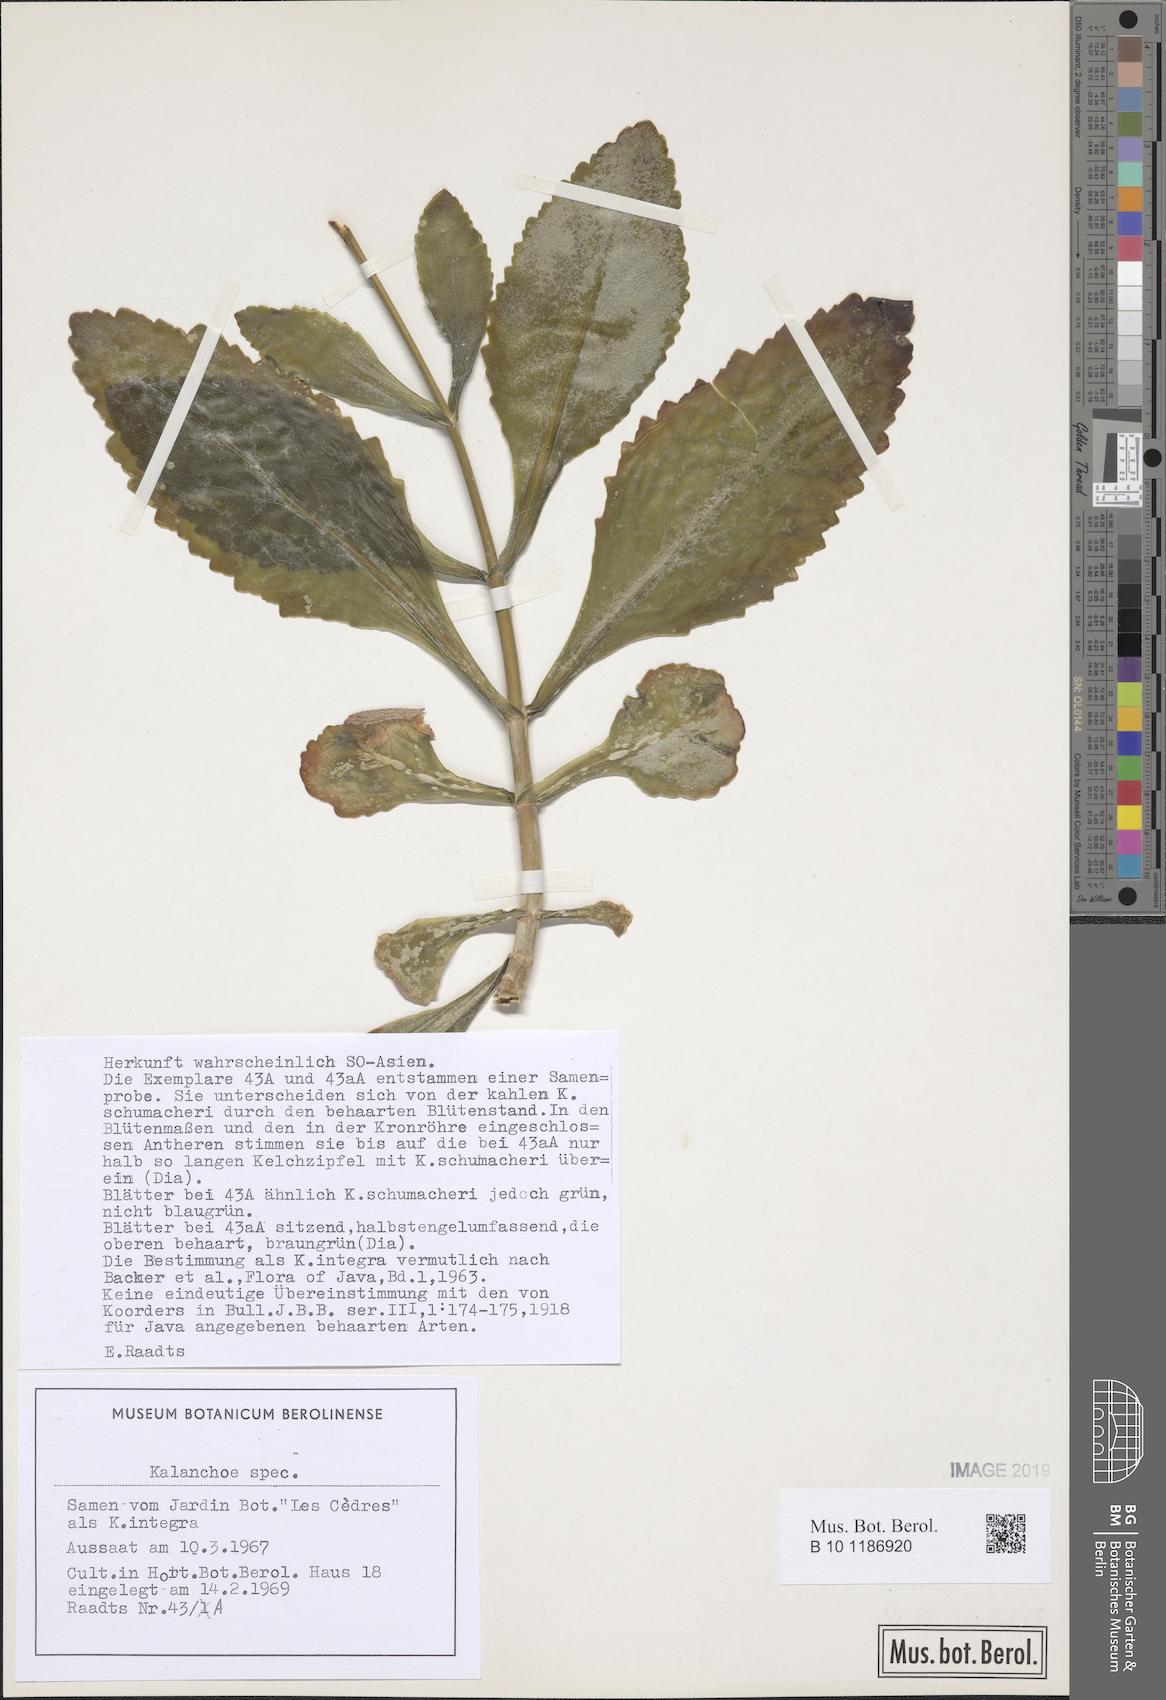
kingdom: Plantae
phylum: Tracheophyta
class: Magnoliopsida
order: Saxifragales
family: Crassulaceae
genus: Kalanchoe
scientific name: Kalanchoe integra
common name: Neverdie
